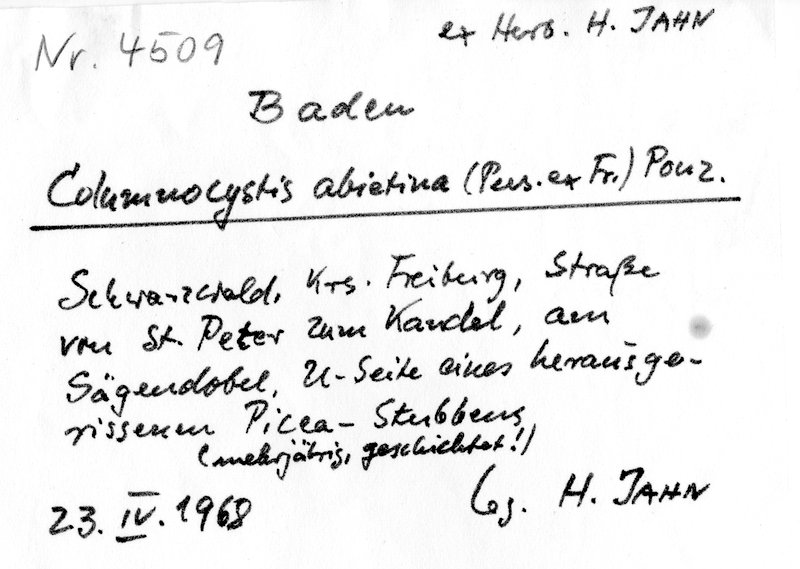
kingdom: Plantae
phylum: Tracheophyta
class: Pinopsida
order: Pinales
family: Pinaceae
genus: Picea
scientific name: Picea
